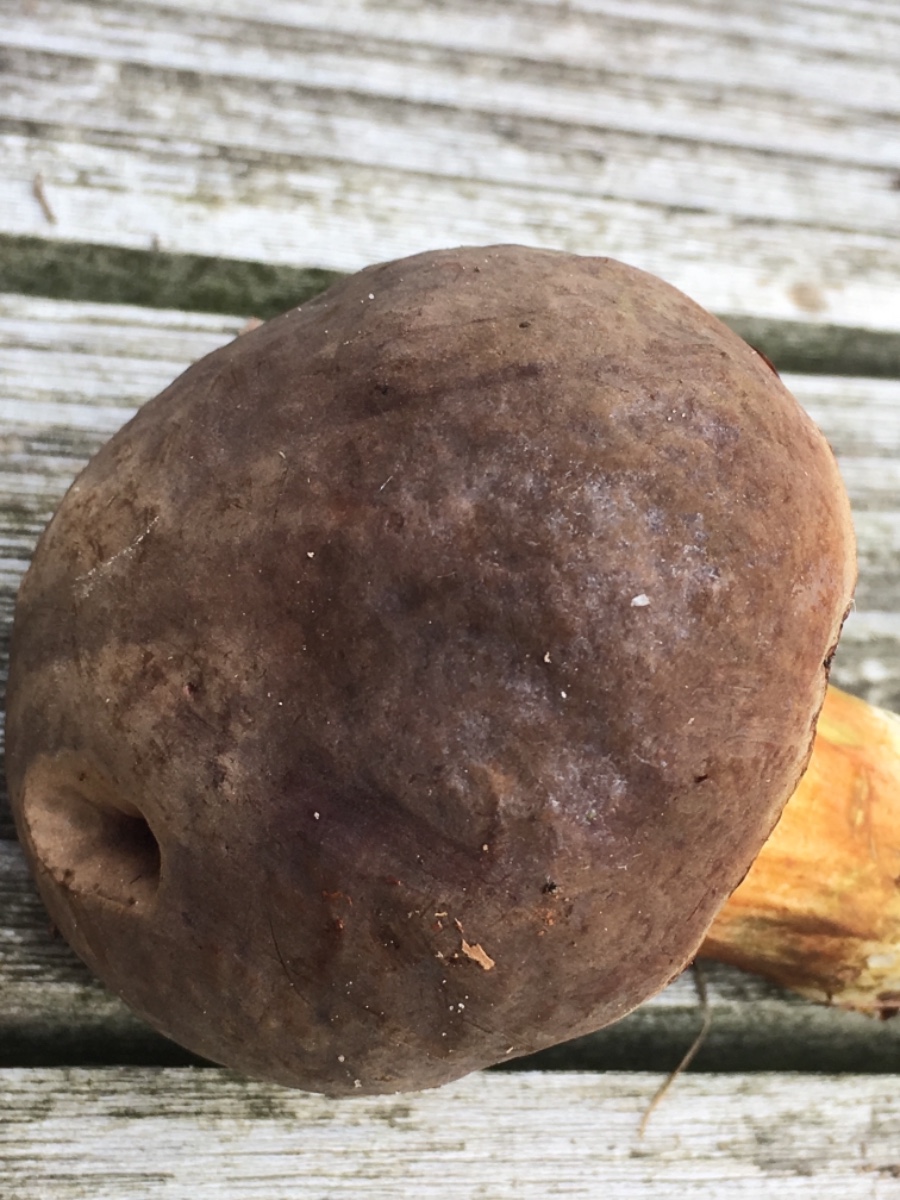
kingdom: Fungi
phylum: Basidiomycota
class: Agaricomycetes
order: Boletales
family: Boletaceae
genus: Xerocomellus
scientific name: Xerocomellus pruinatus
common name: dugget rørhat
